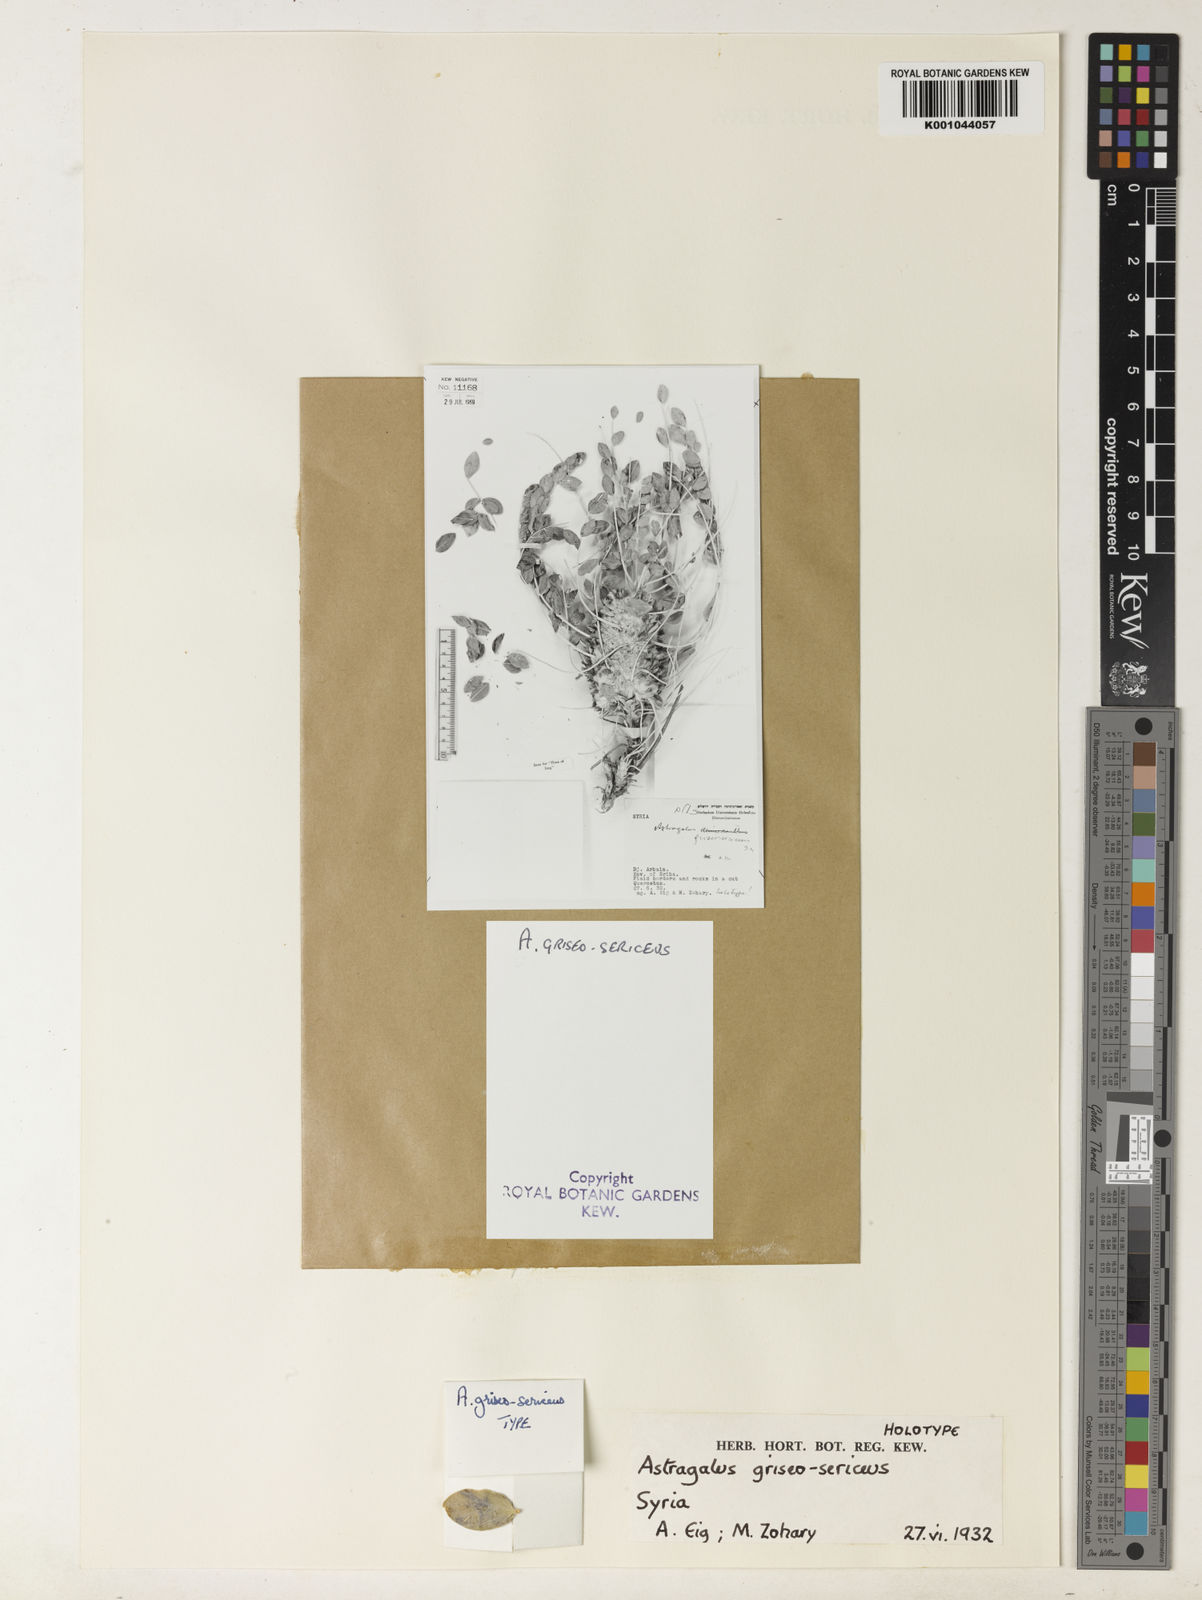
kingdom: Plantae
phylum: Tracheophyta
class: Magnoliopsida
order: Fabales
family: Fabaceae
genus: Astragalus
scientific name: Astragalus dipodurus
